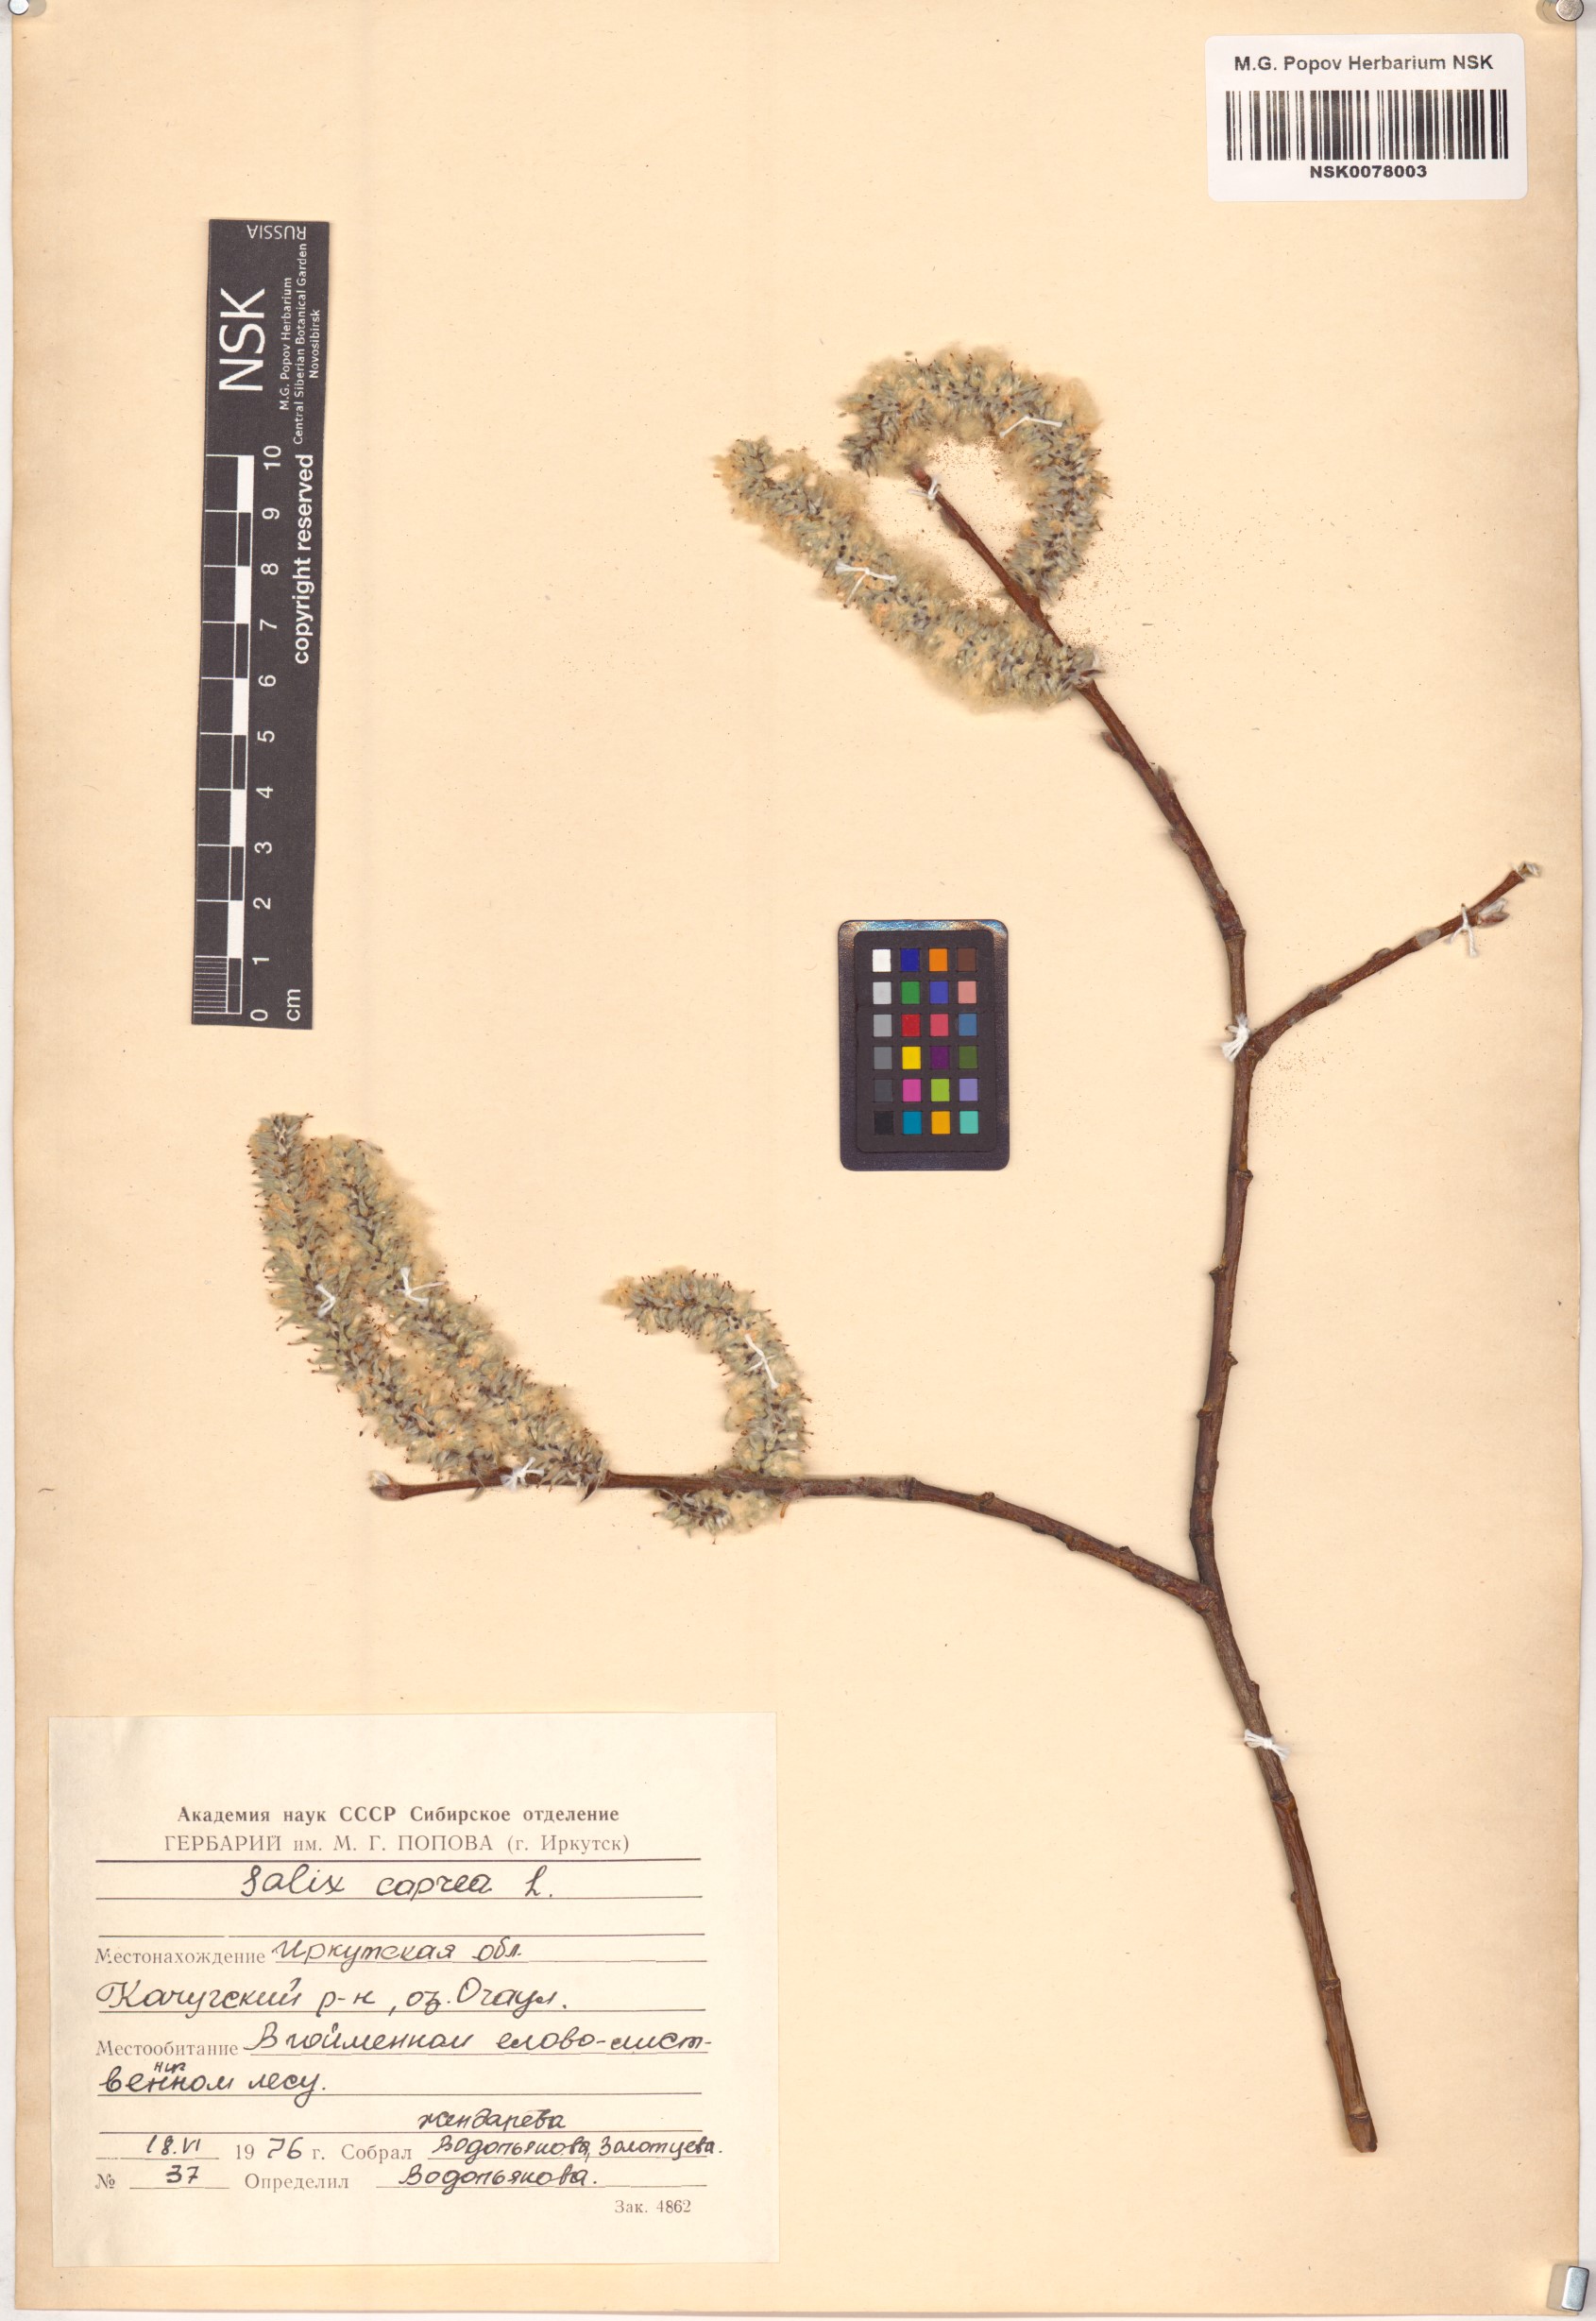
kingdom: Plantae
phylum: Tracheophyta
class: Magnoliopsida
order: Malpighiales
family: Salicaceae
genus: Salix
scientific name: Salix caprea
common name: Goat willow
